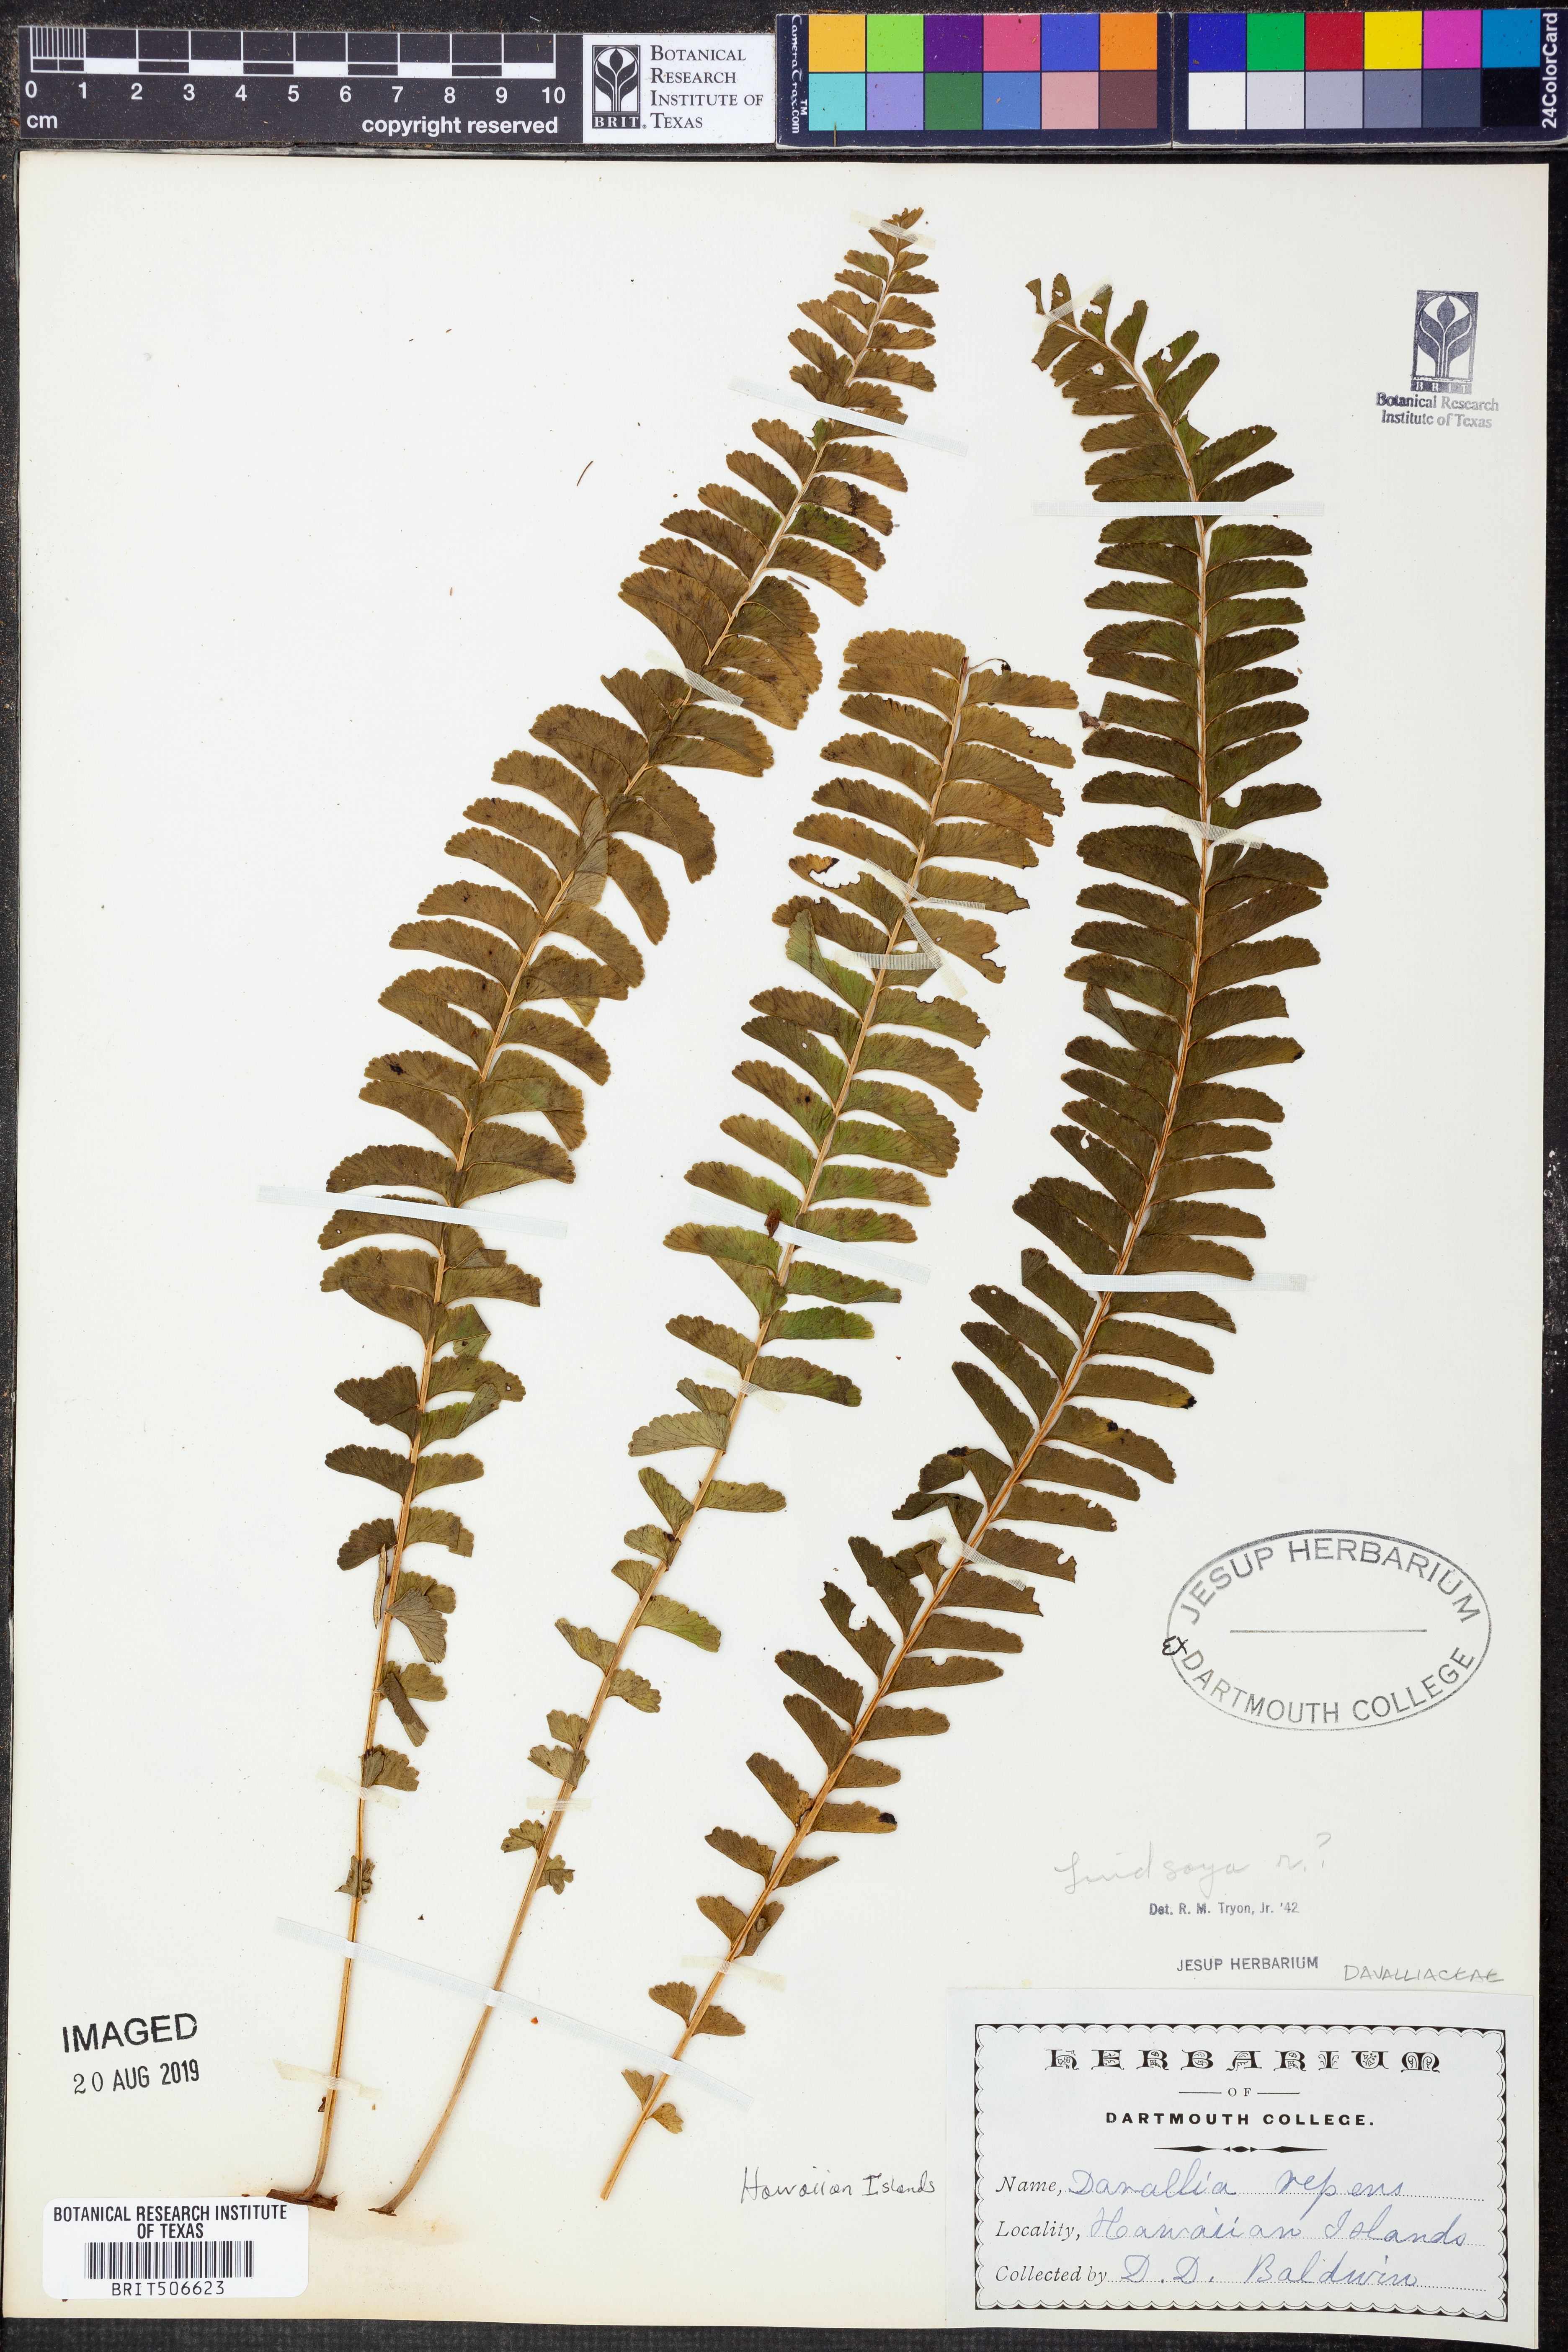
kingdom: Plantae
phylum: Tracheophyta
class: Polypodiopsida
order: Polypodiales
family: Lindsaeaceae
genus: Lindsaea
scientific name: Lindsaea capillacea
